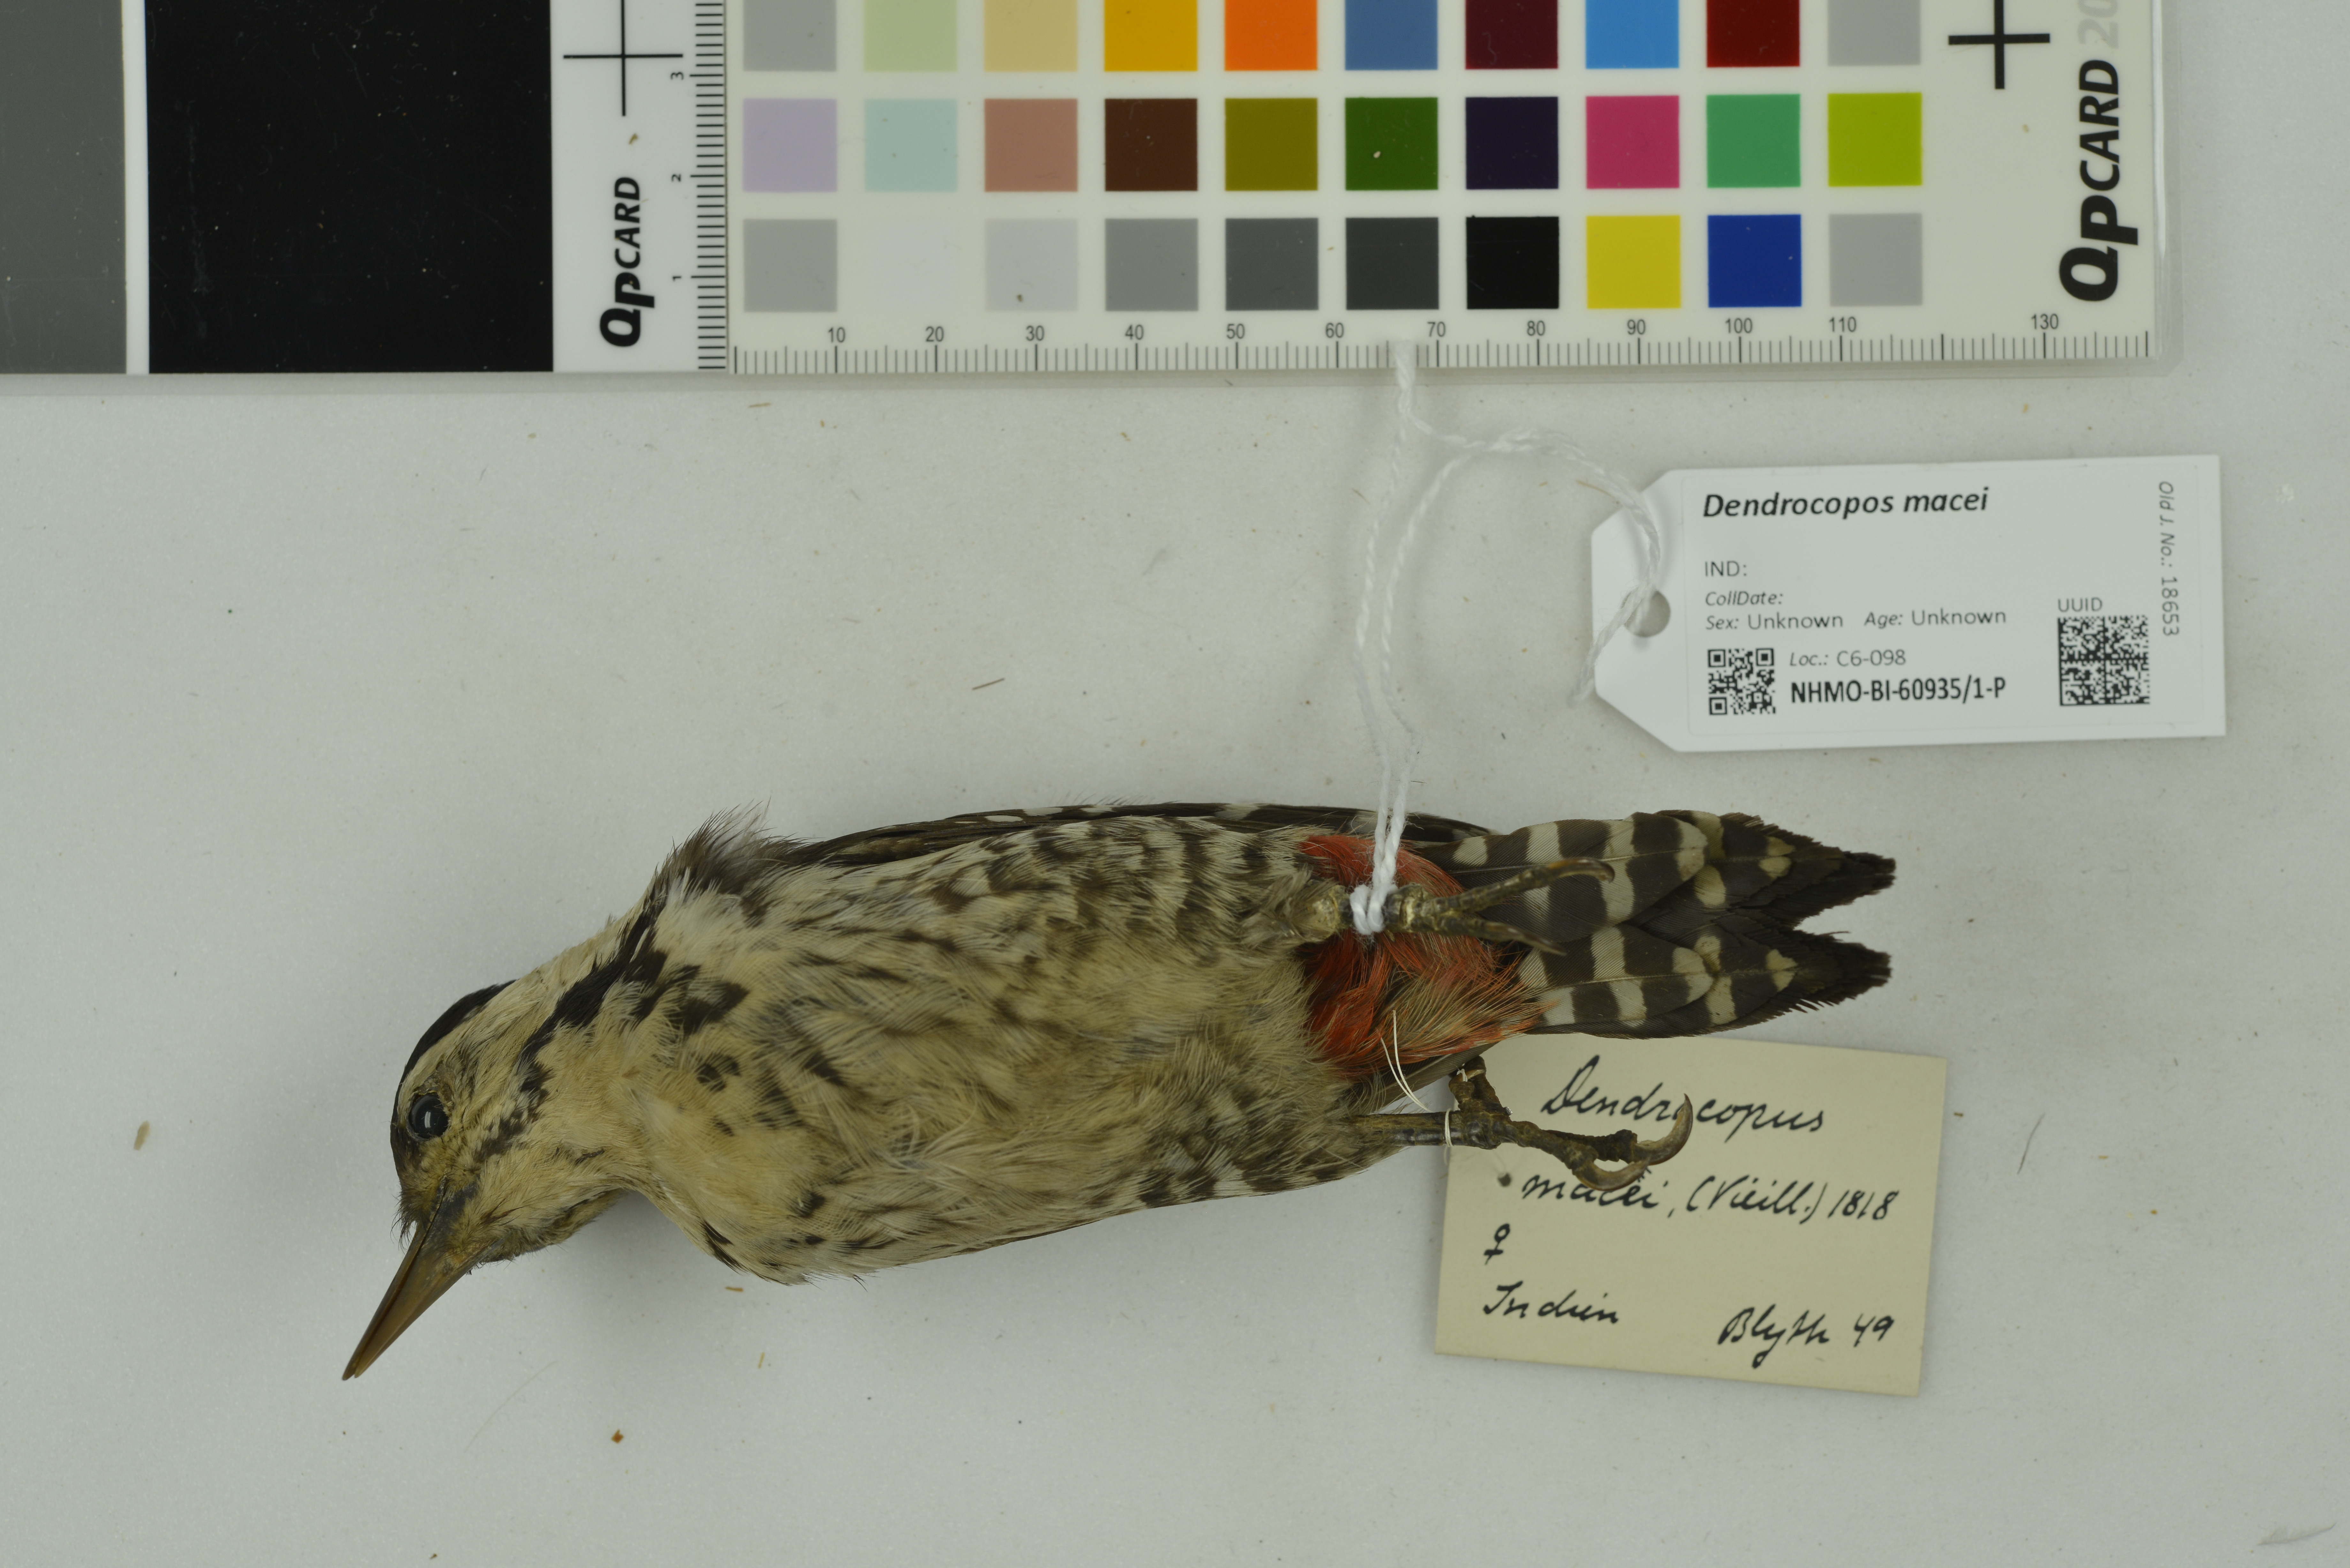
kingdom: Animalia
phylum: Chordata
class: Aves
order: Piciformes
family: Picidae
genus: Dendrocopos
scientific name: Dendrocopos macei
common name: Fulvous-breasted woodpecker
